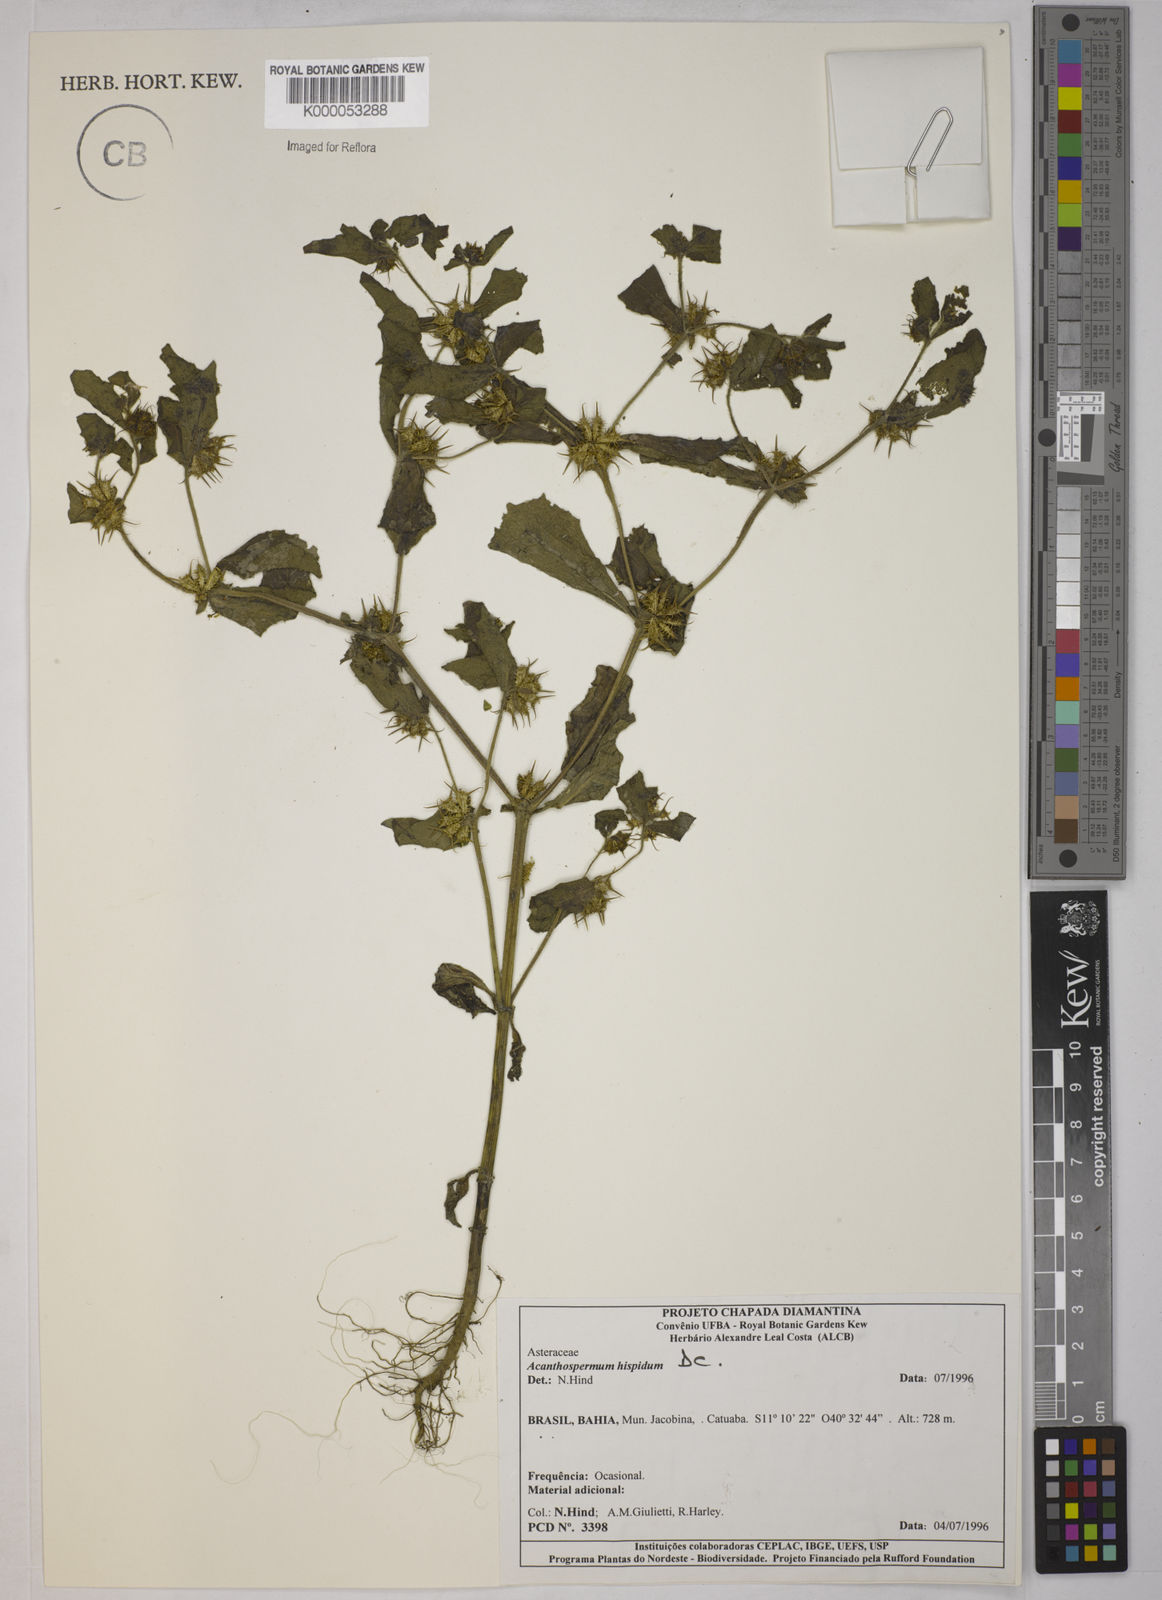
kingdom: Plantae
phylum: Tracheophyta
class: Magnoliopsida
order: Asterales
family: Asteraceae
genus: Acanthospermum
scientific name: Acanthospermum hispidum
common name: Hispid starbur
